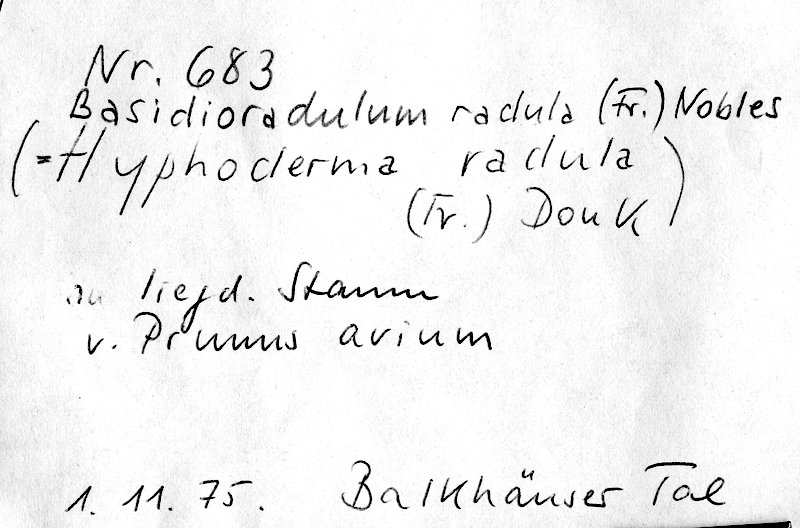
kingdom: Plantae
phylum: Tracheophyta
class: Magnoliopsida
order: Rosales
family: Rosaceae
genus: Prunus
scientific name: Prunus avium
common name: Sweet cherry
